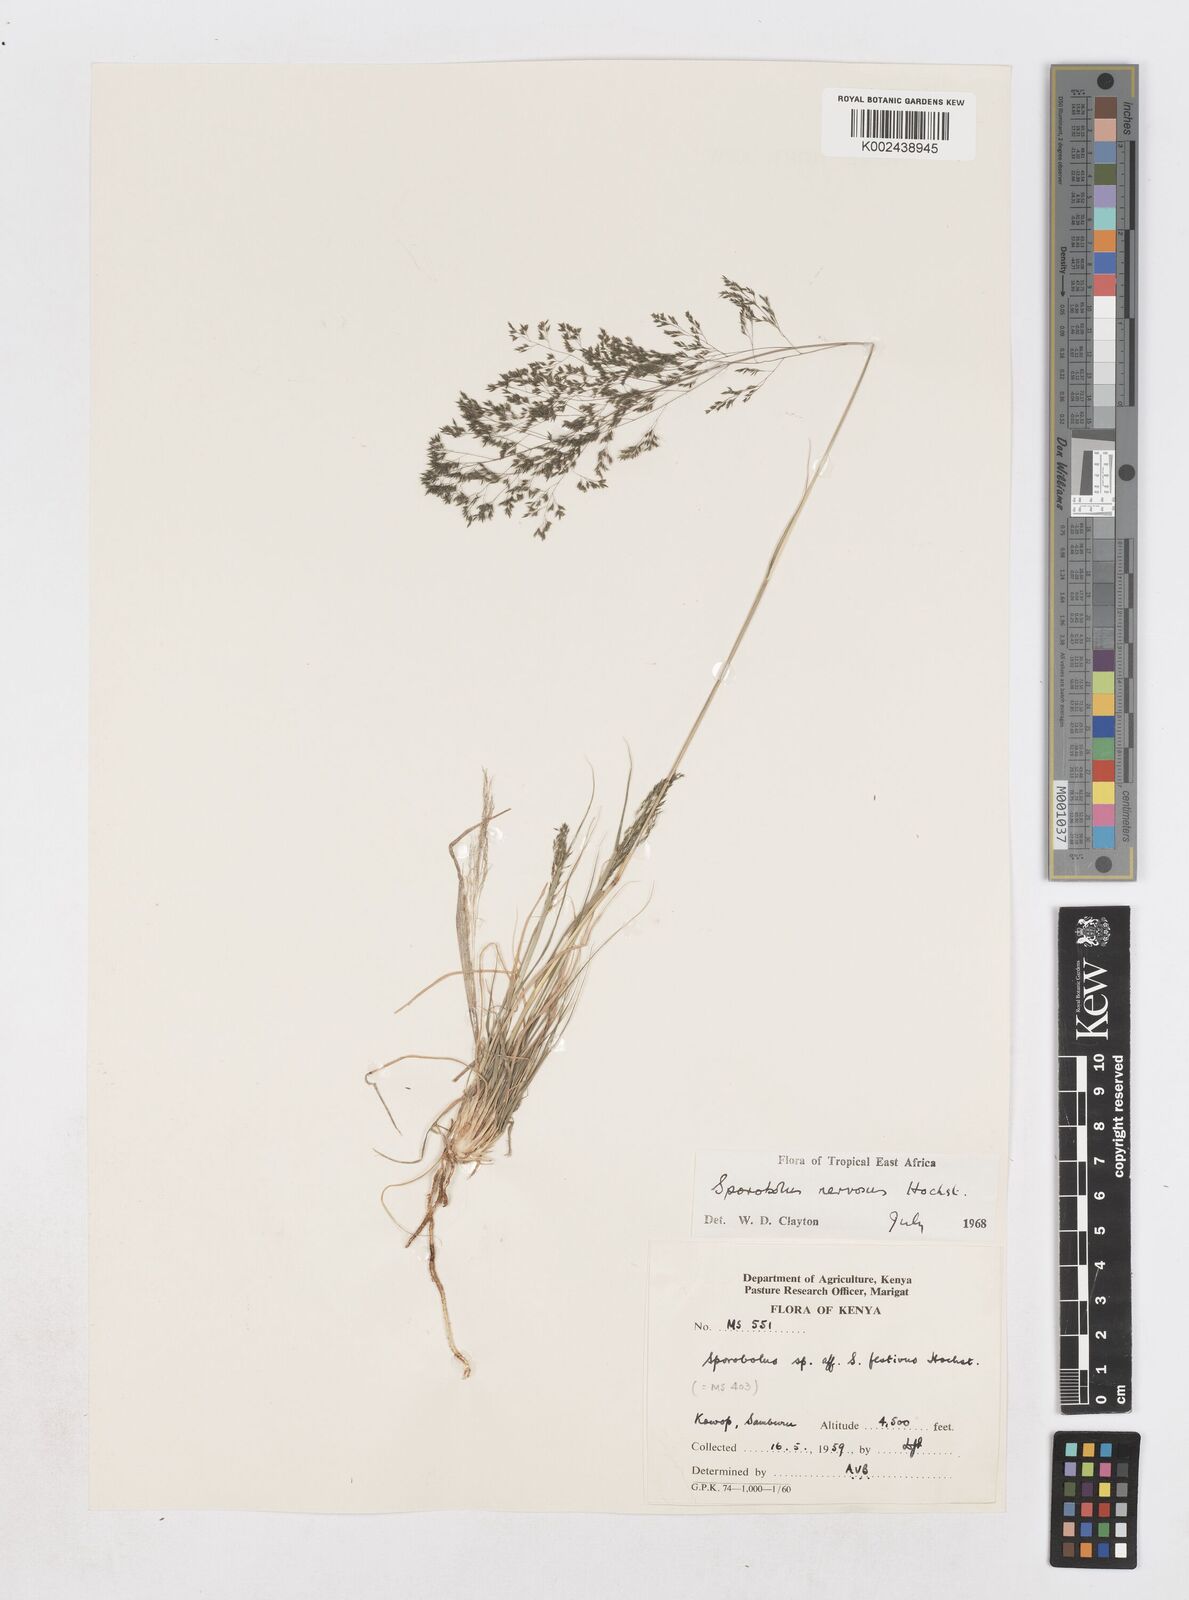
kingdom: Plantae
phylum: Tracheophyta
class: Liliopsida
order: Poales
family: Poaceae
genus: Sporobolus
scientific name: Sporobolus nervosus
